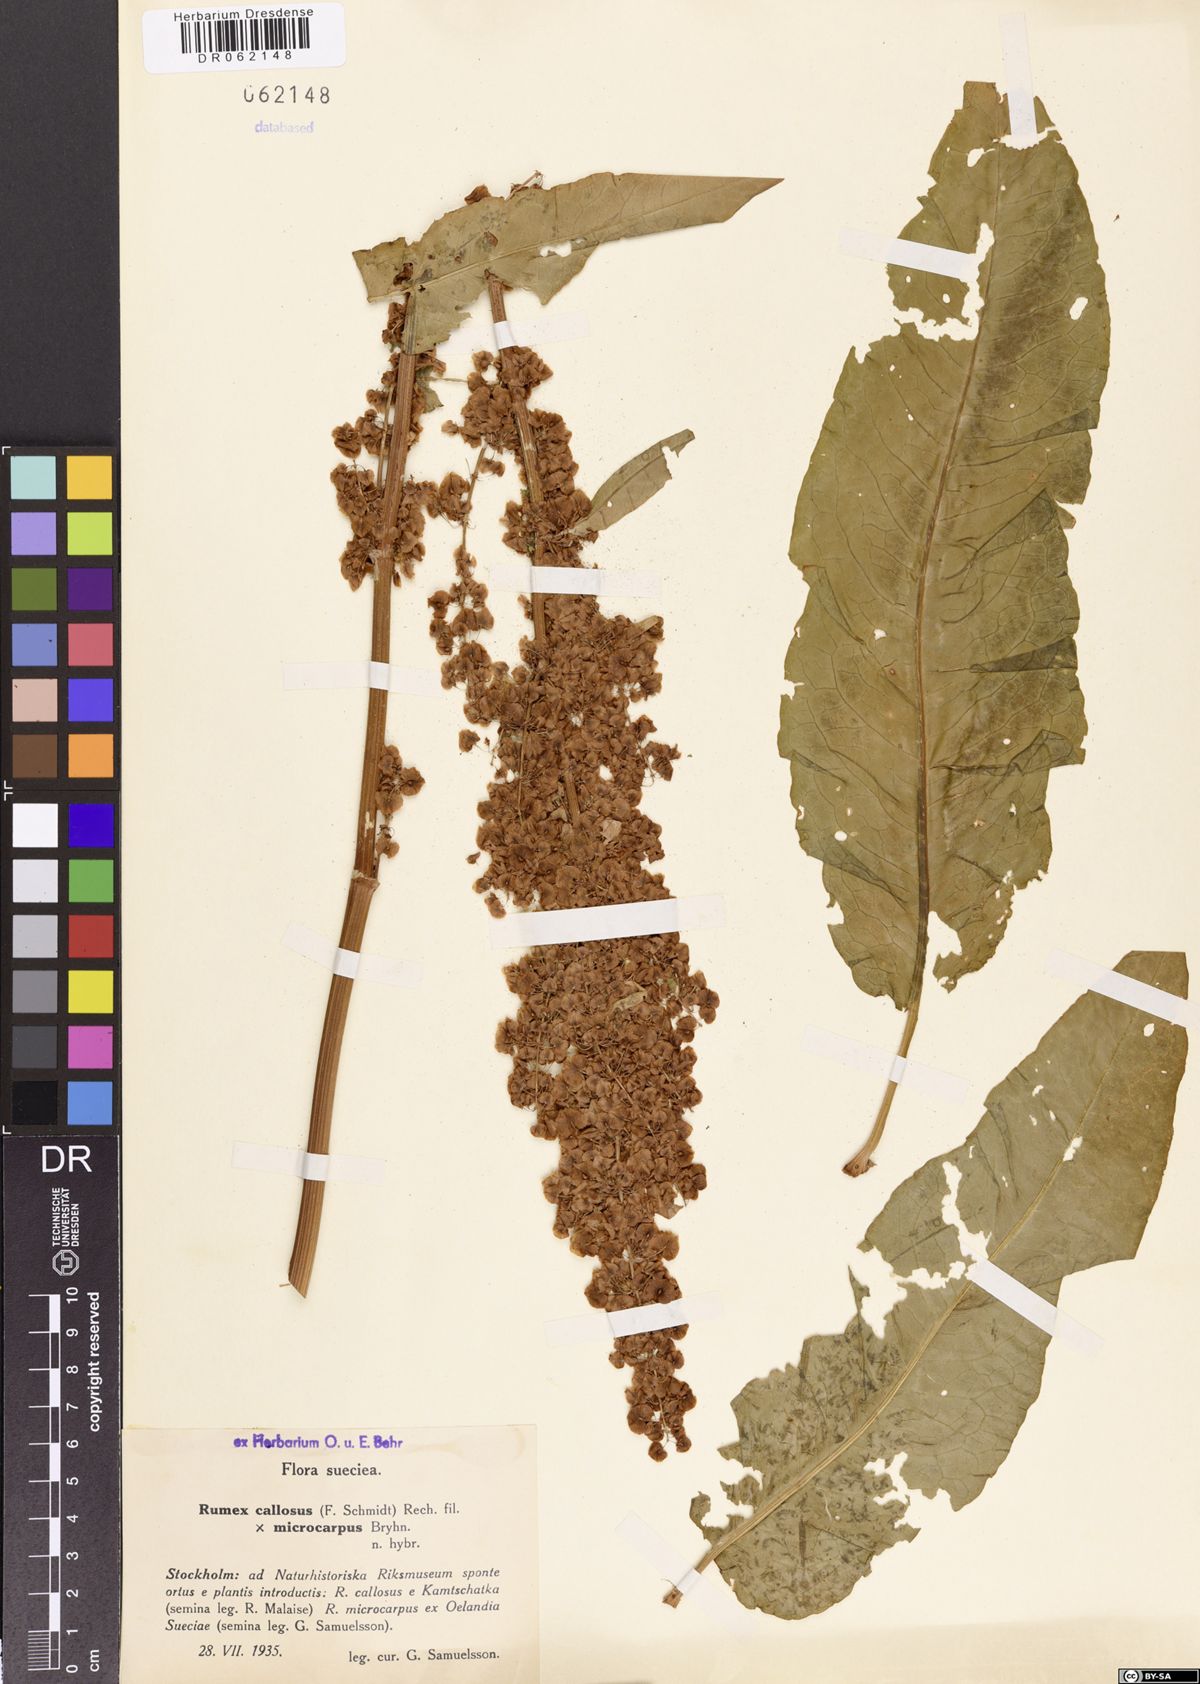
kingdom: Plantae
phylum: Tracheophyta
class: Magnoliopsida
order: Caryophyllales
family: Polygonaceae
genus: Rumex
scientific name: Rumex patientia
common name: Patience dock
